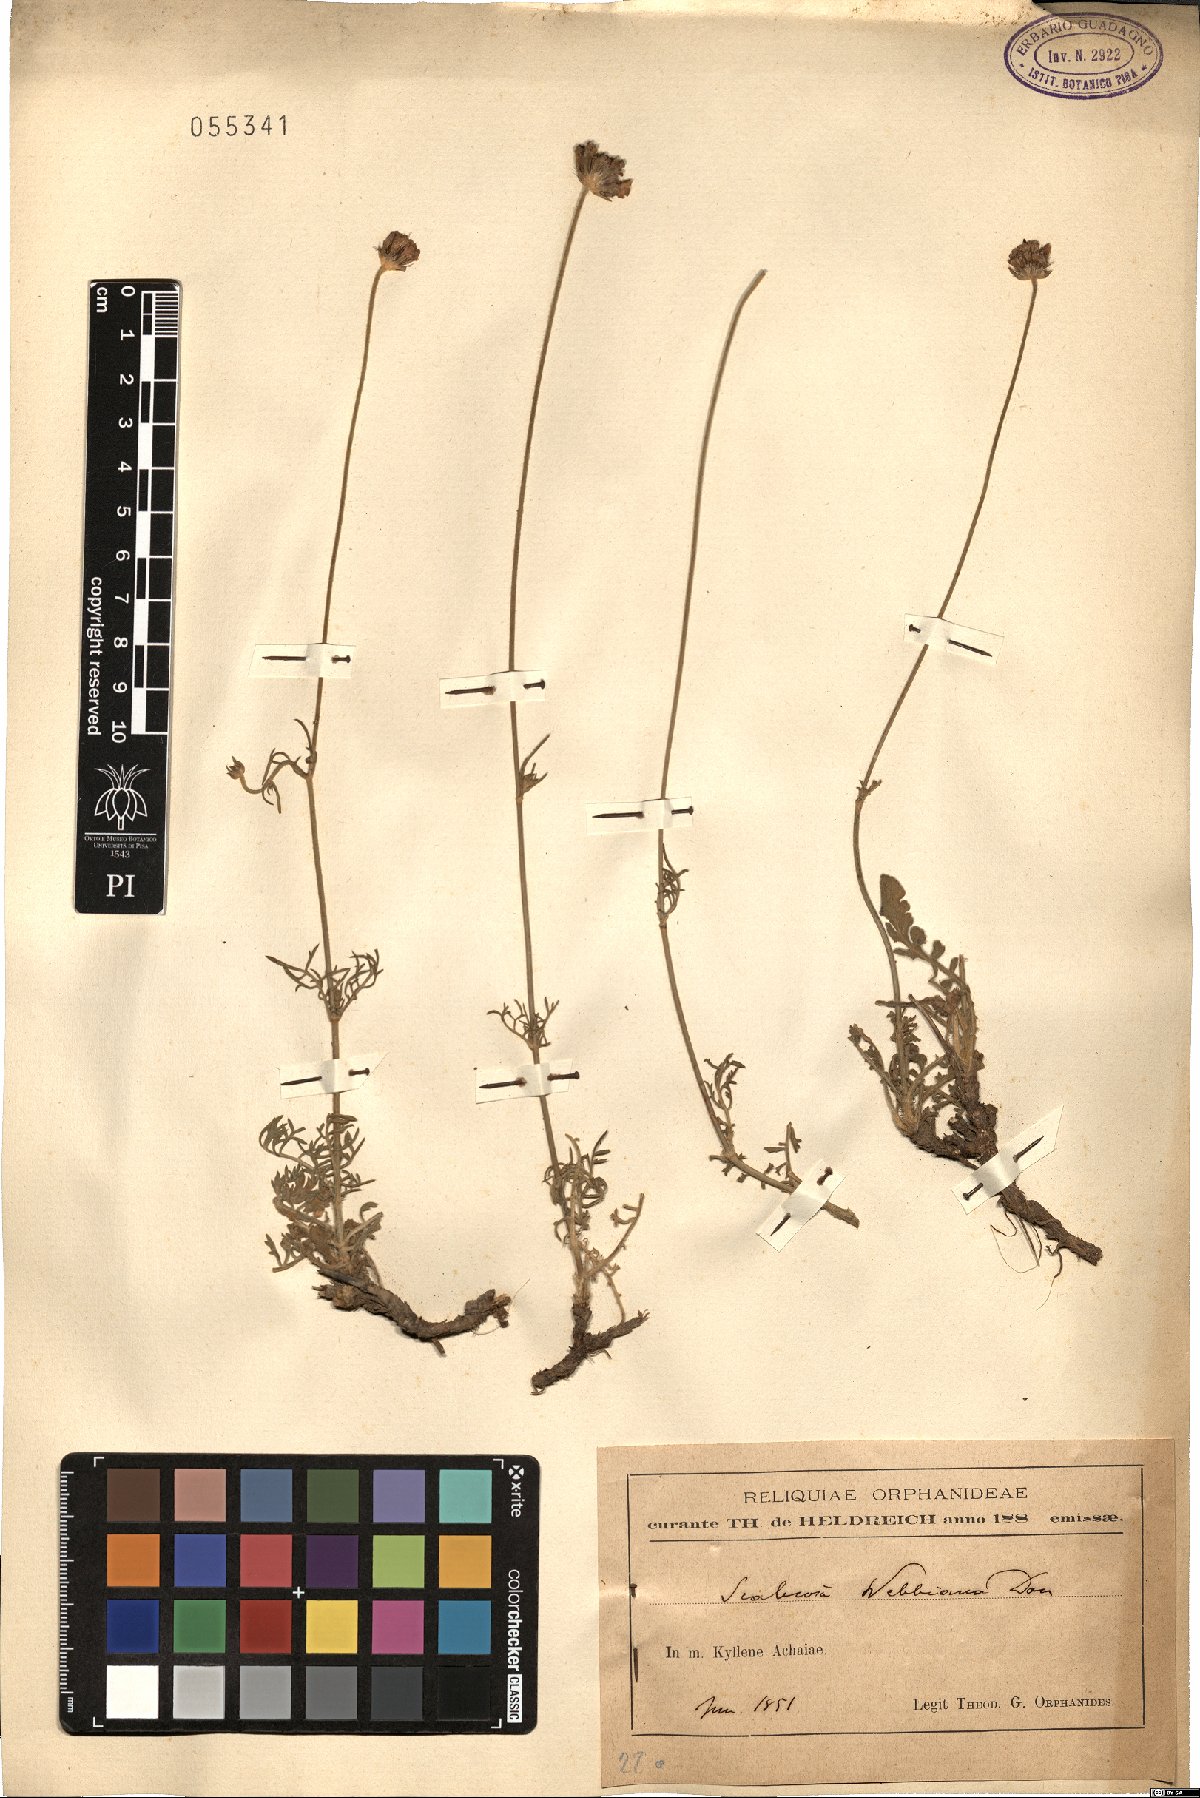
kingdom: Plantae
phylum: Tracheophyta
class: Magnoliopsida
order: Dipsacales
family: Caprifoliaceae
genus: Scabiosa
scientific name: Scabiosa webbiana
